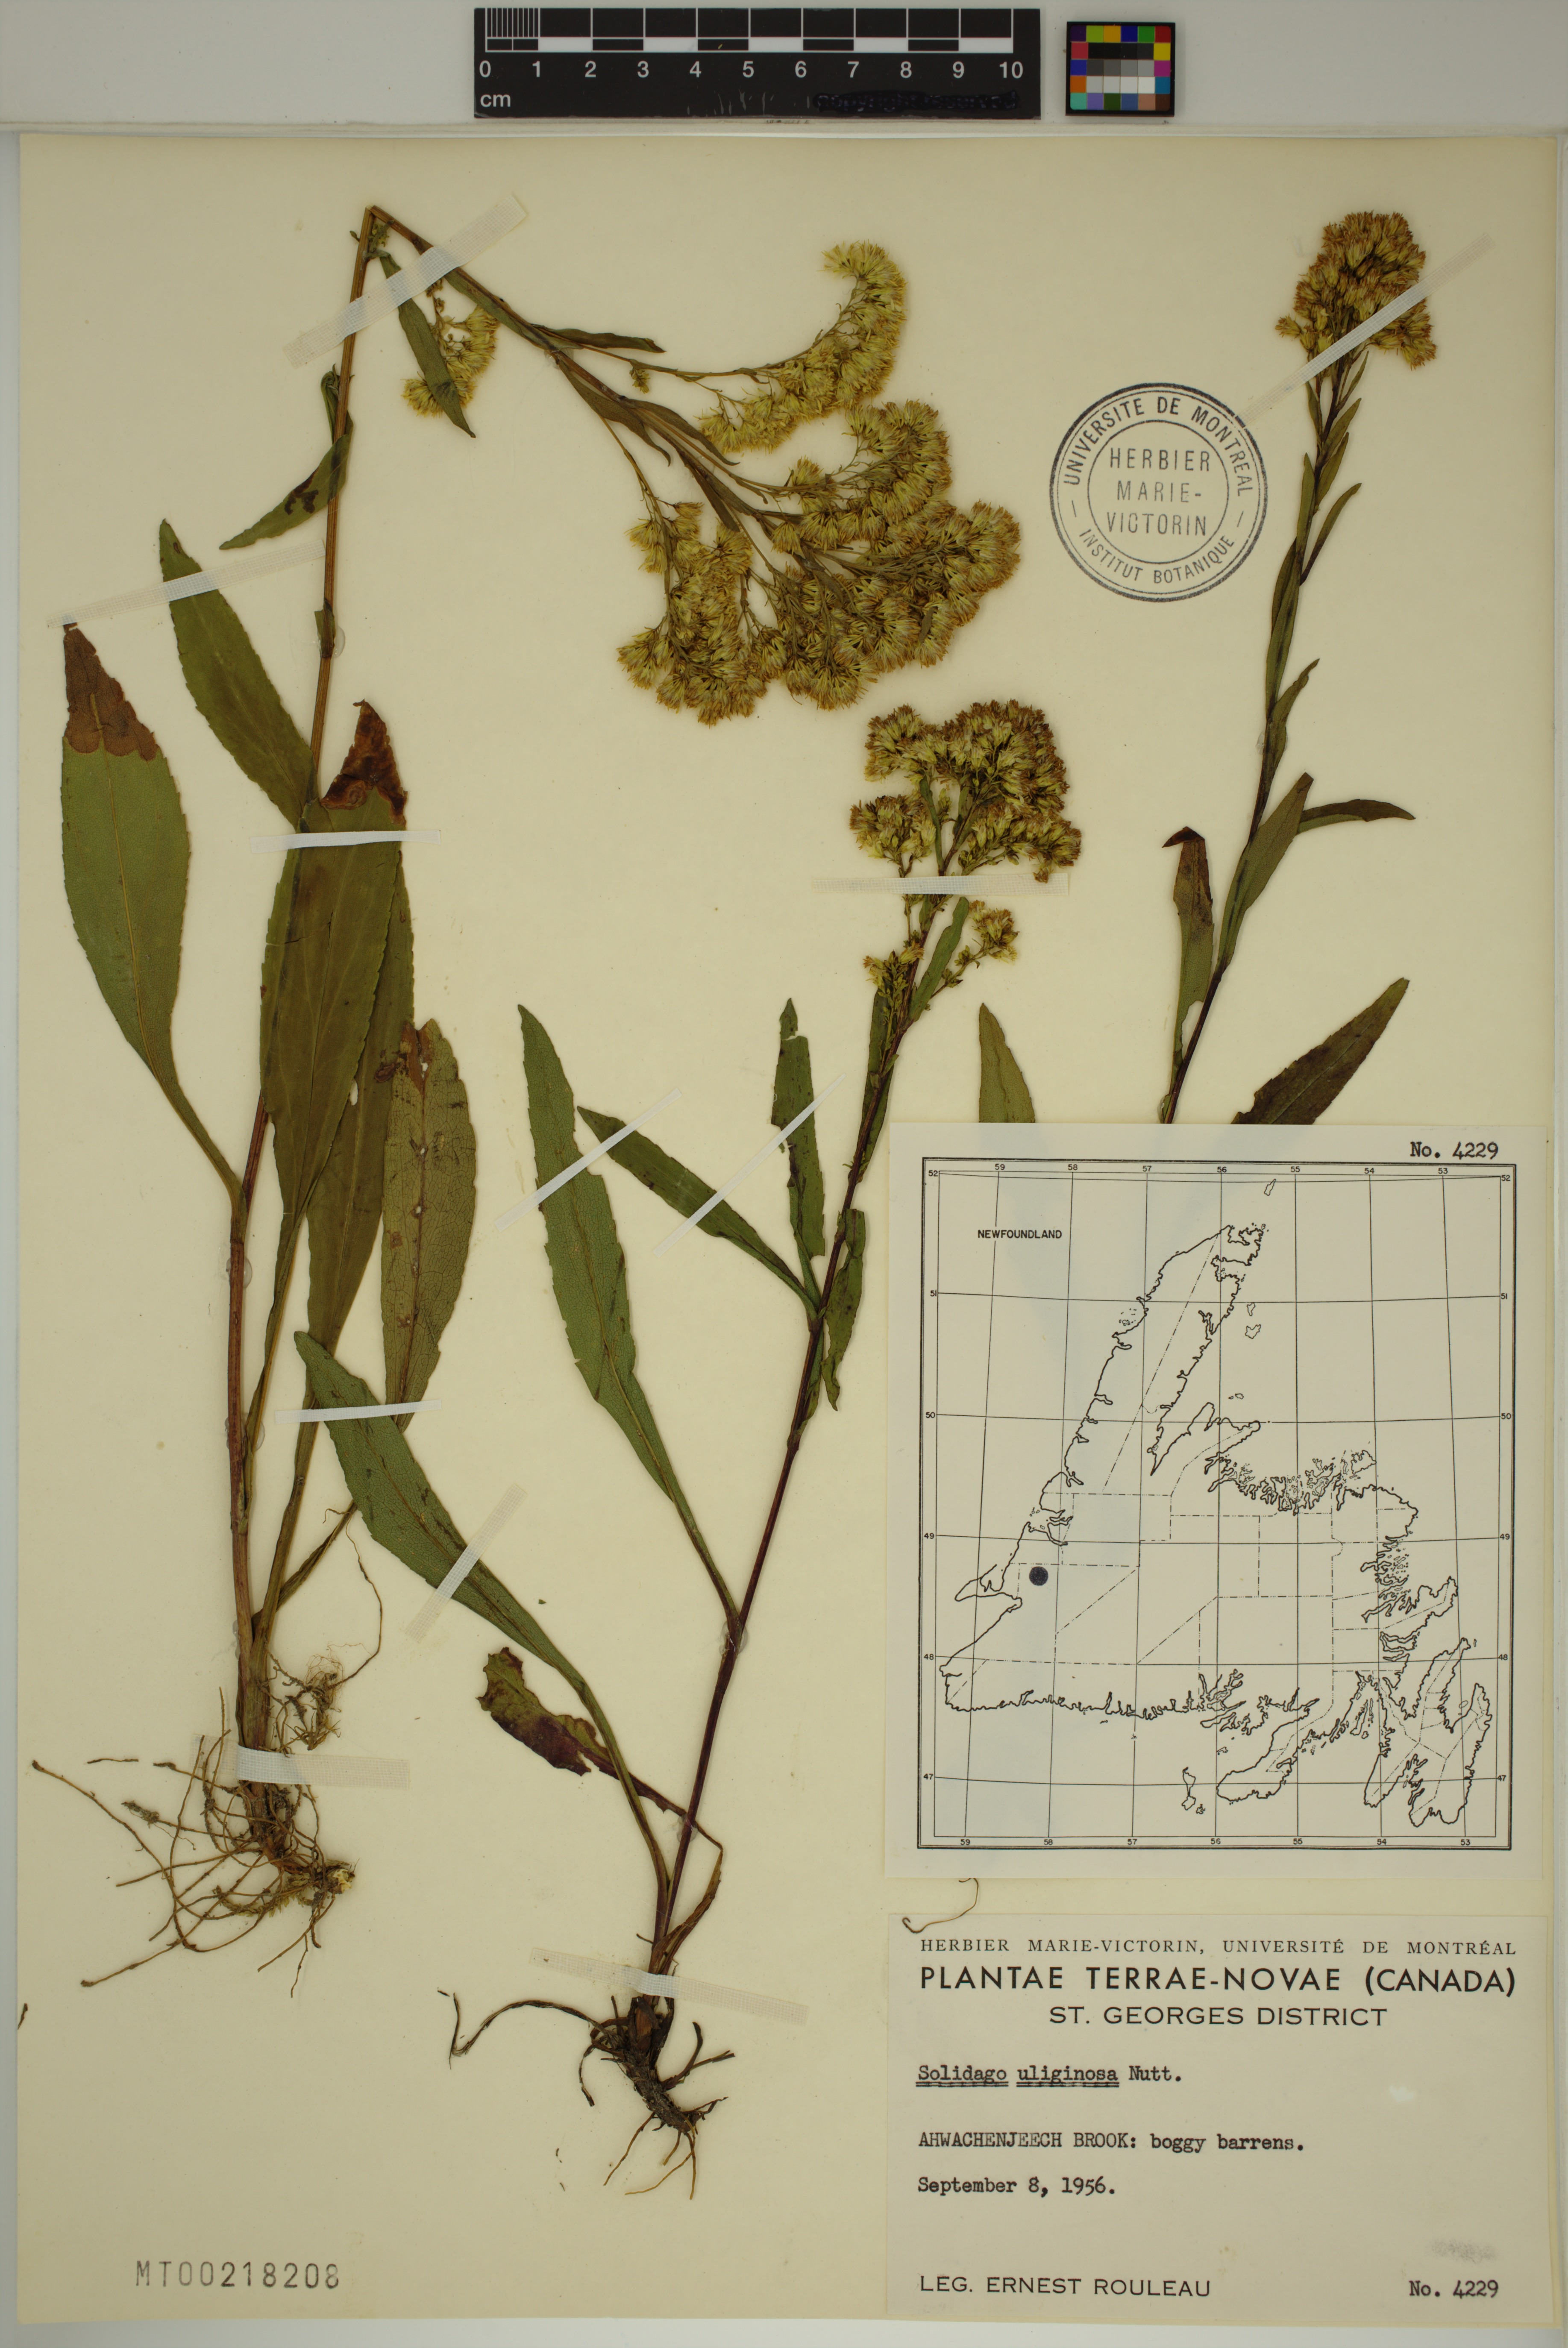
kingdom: Plantae
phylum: Tracheophyta
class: Magnoliopsida
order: Asterales
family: Asteraceae
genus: Solidago
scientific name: Solidago uliginosa
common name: Bog goldenrod
